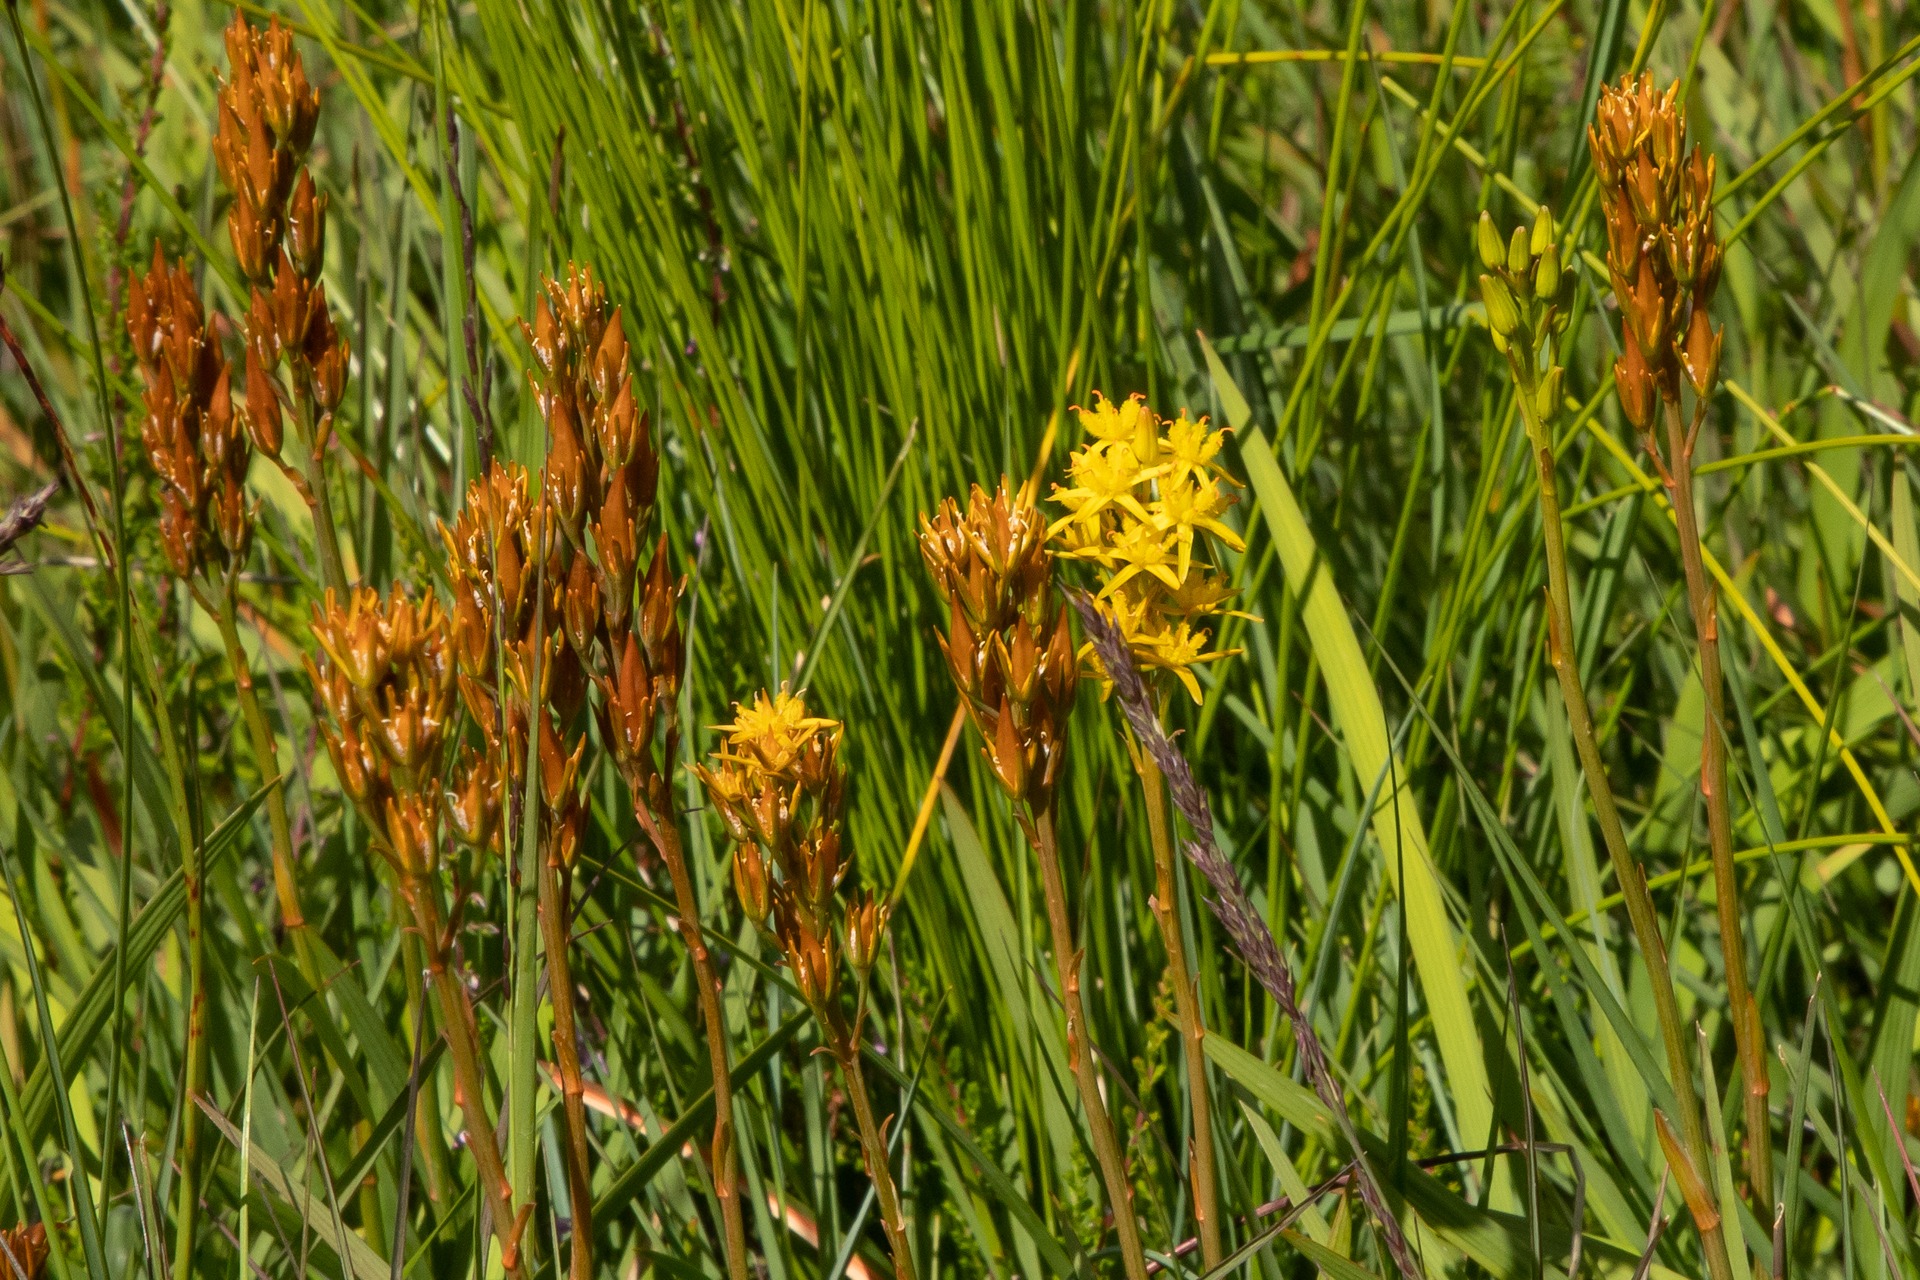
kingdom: Plantae
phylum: Tracheophyta
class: Liliopsida
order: Dioscoreales
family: Nartheciaceae
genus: Narthecium
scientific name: Narthecium ossifragum
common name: Benbræk
